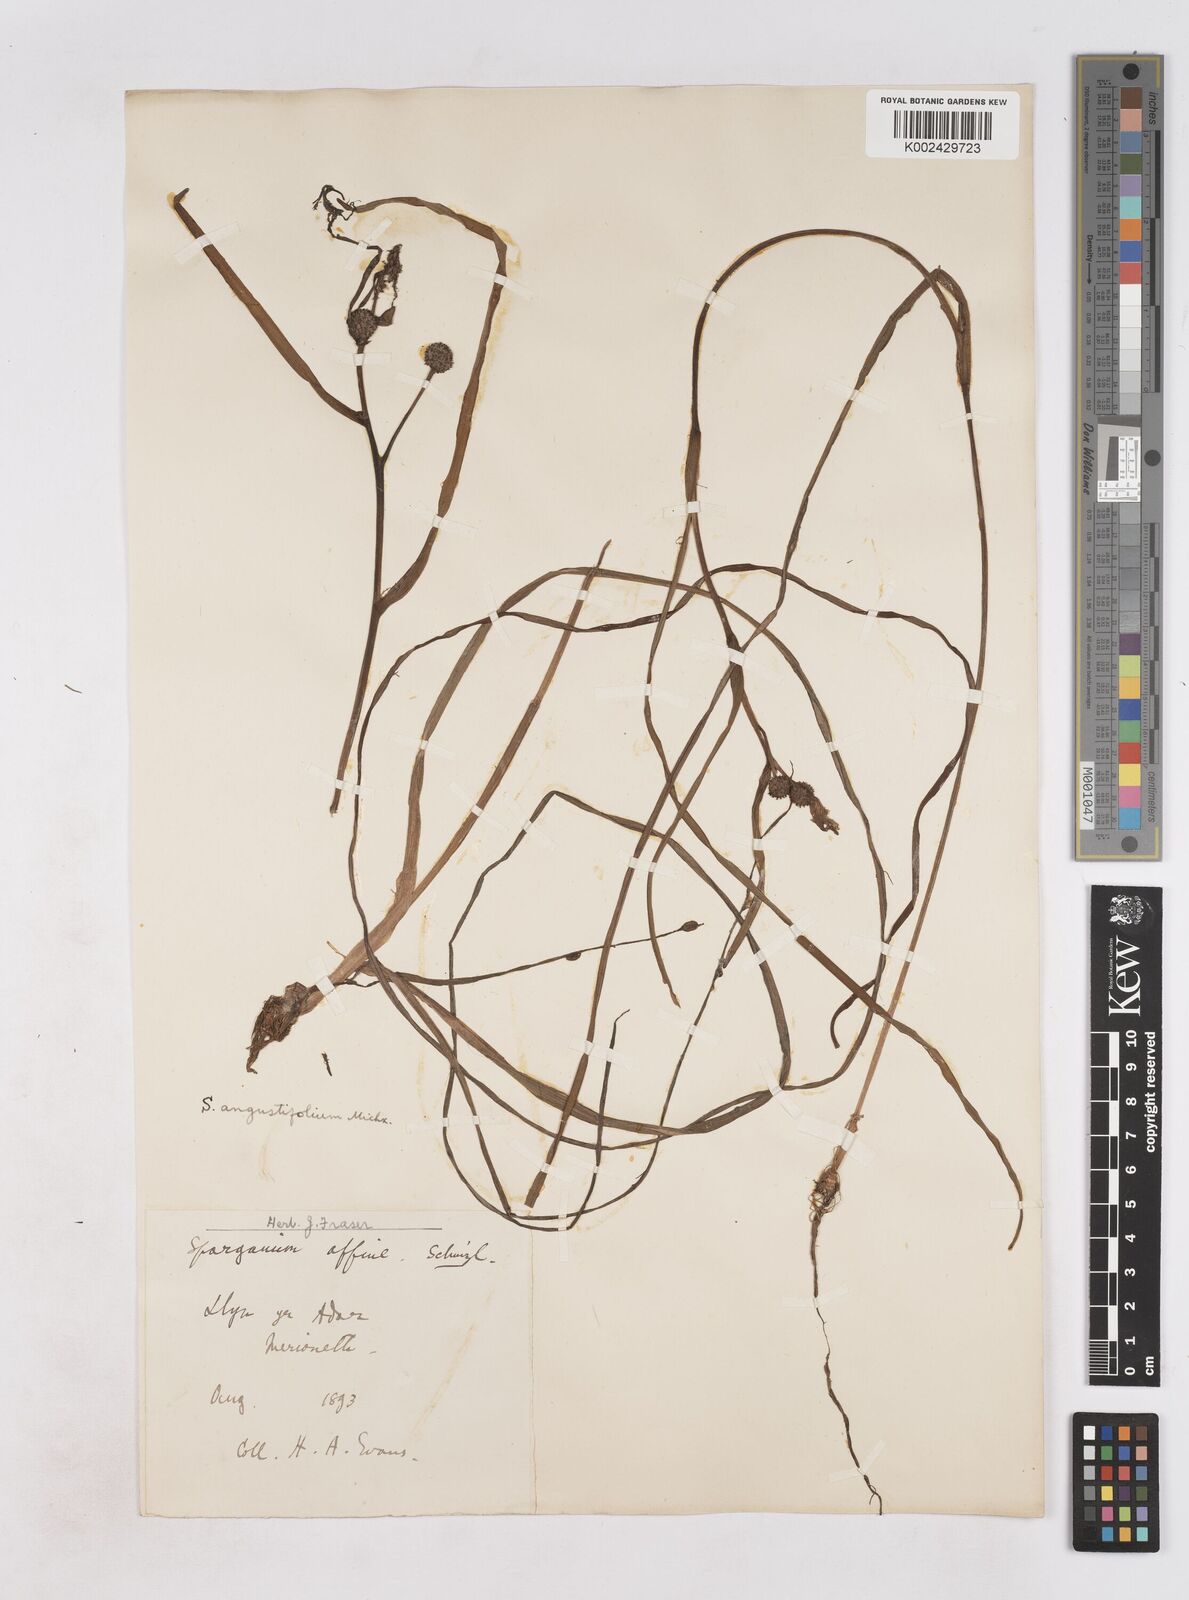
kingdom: Plantae
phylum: Tracheophyta
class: Liliopsida
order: Poales
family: Typhaceae
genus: Sparganium
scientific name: Sparganium angustifolium
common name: Floating bur-reed
